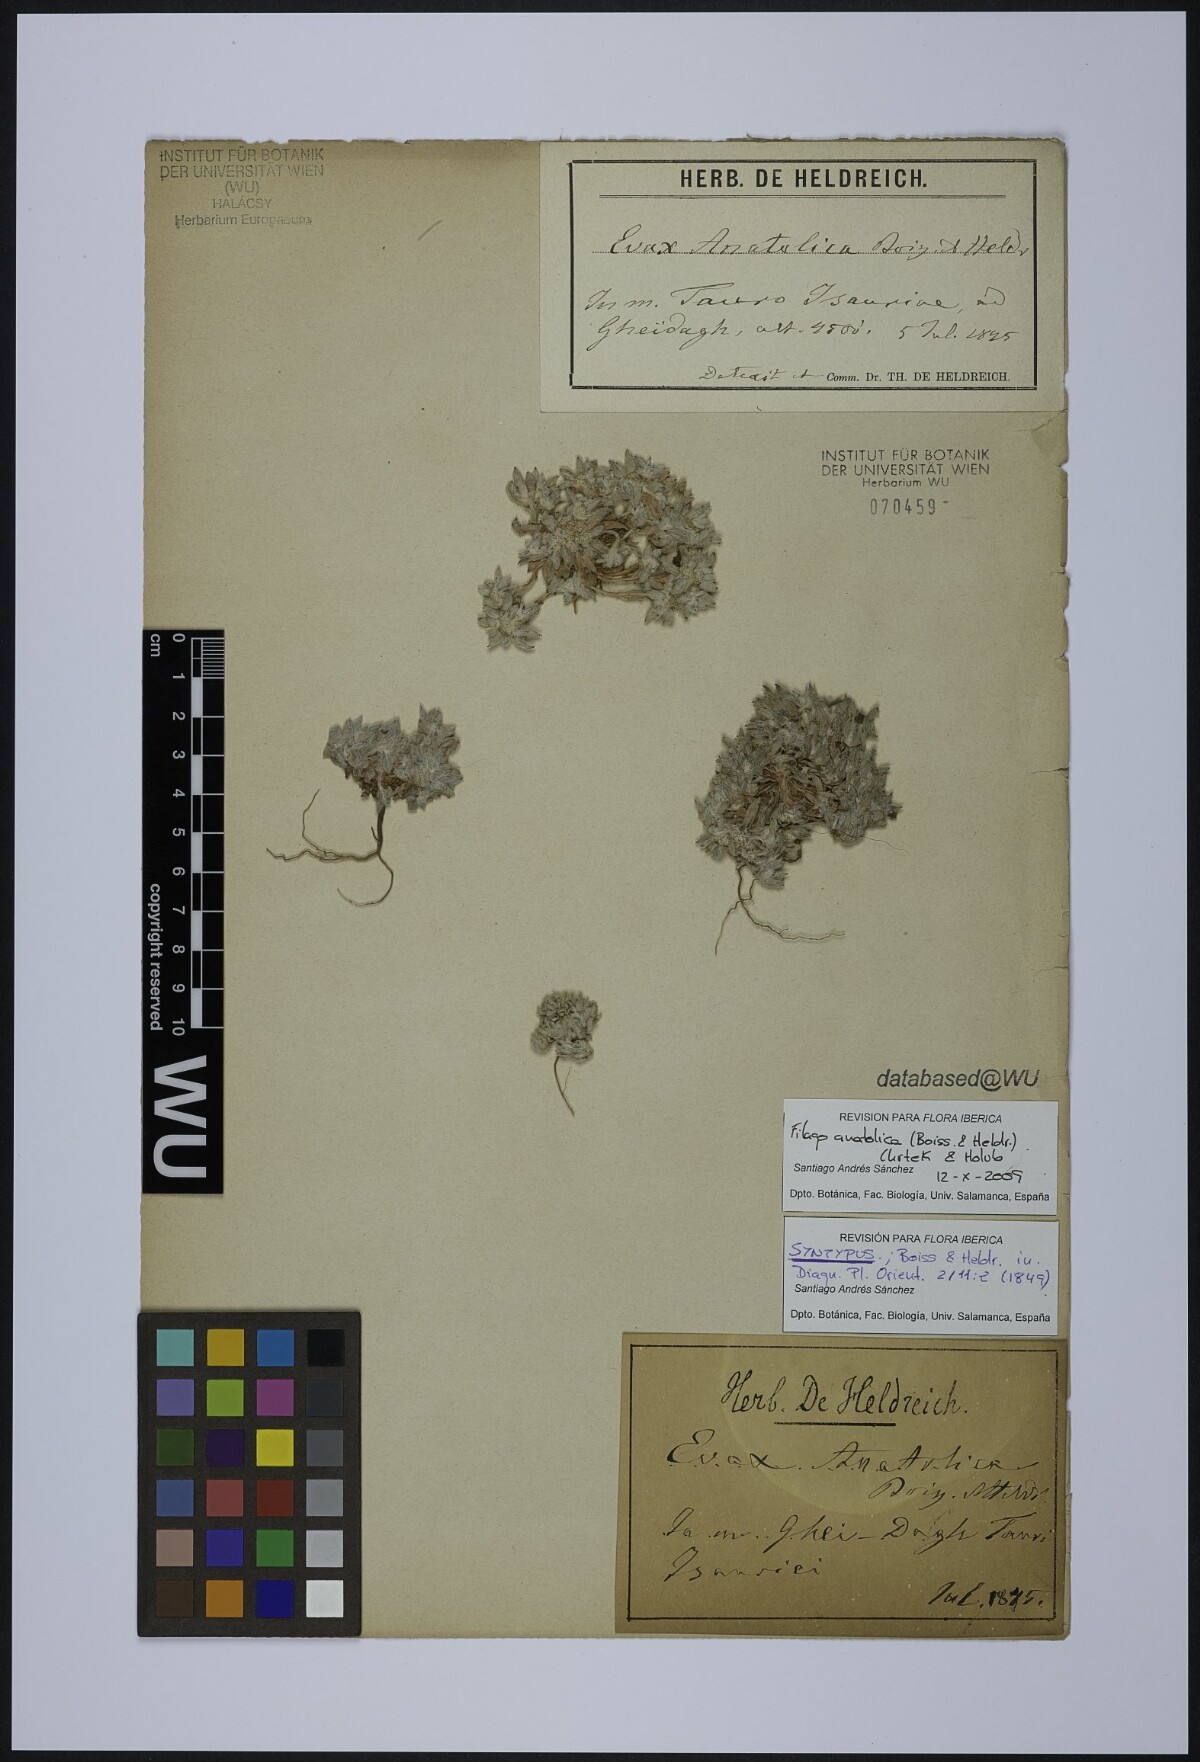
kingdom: Plantae
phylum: Tracheophyta
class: Magnoliopsida
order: Asterales
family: Asteraceae
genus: Filago
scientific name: Filago anatolica
